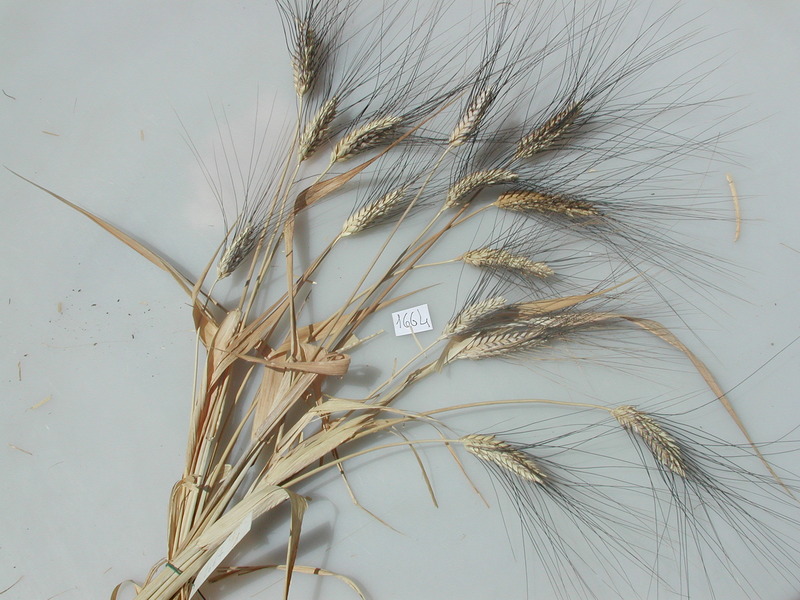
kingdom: Plantae
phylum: Tracheophyta
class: Liliopsida
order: Poales
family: Poaceae
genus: Triticum
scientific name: Triticum turgidum
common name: Wheat
